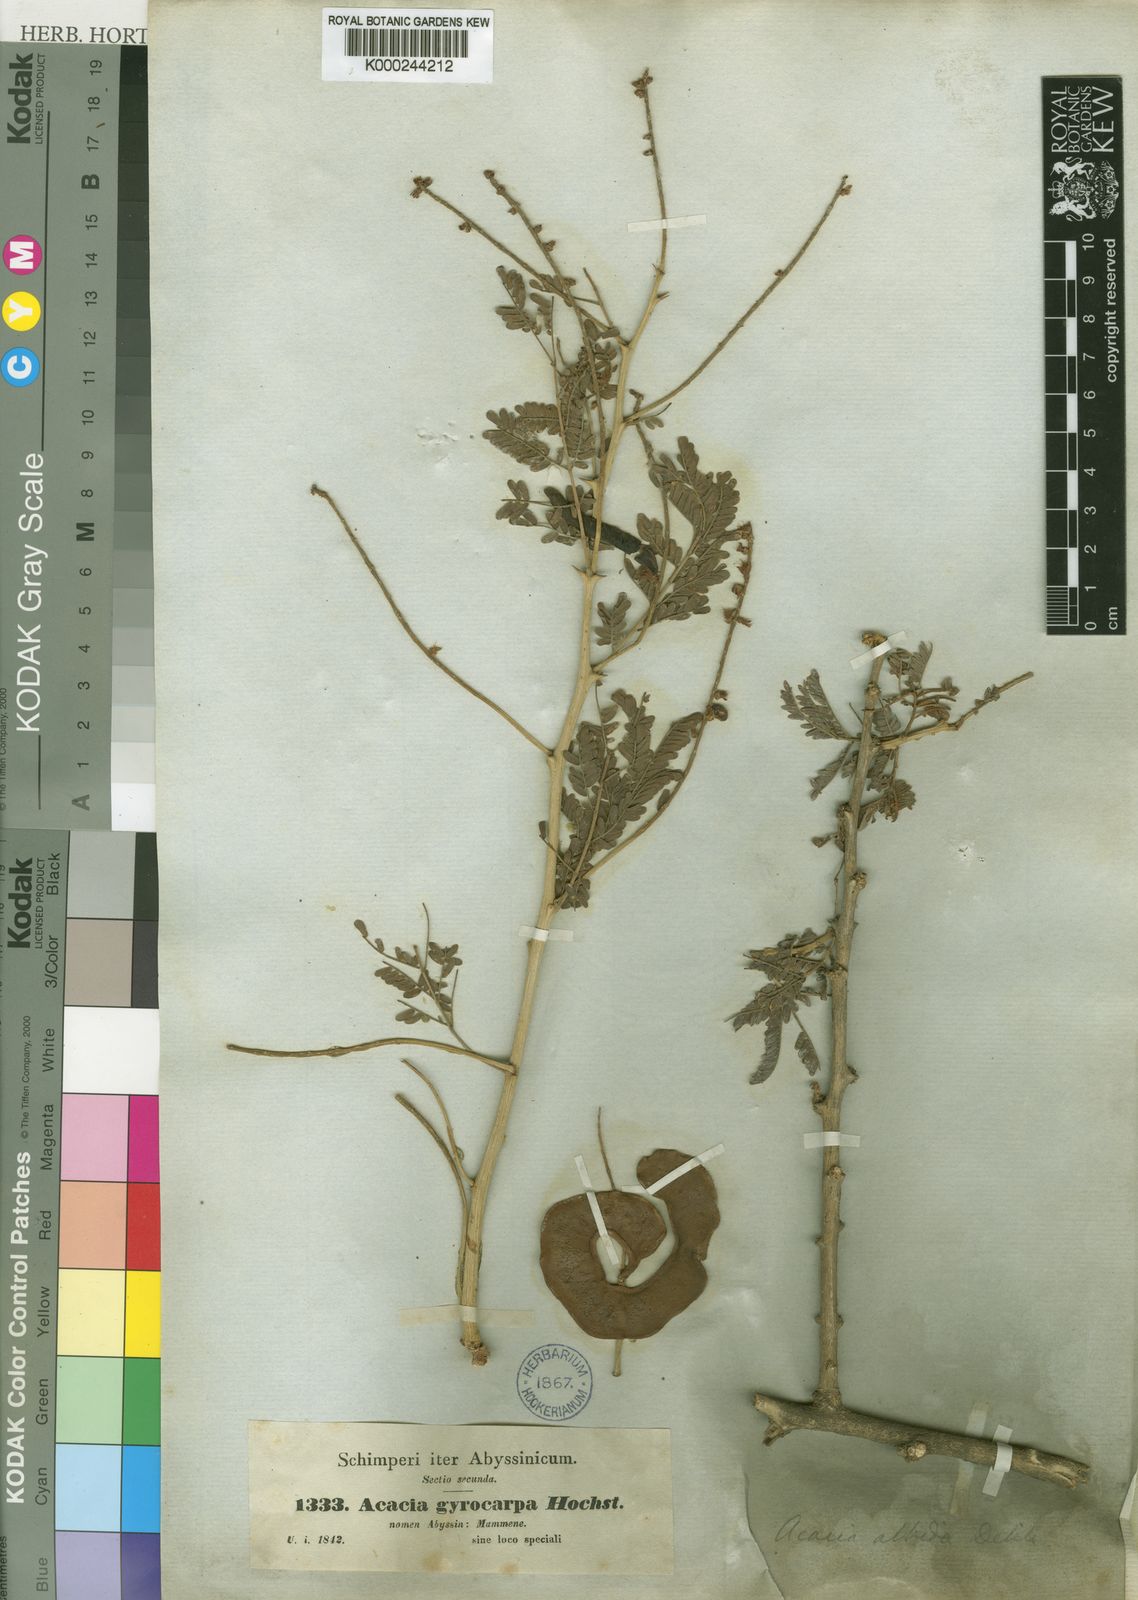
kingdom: Plantae
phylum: Tracheophyta
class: Magnoliopsida
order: Fabales
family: Fabaceae
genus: Faidherbia
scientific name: Faidherbia albida
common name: Anatree
